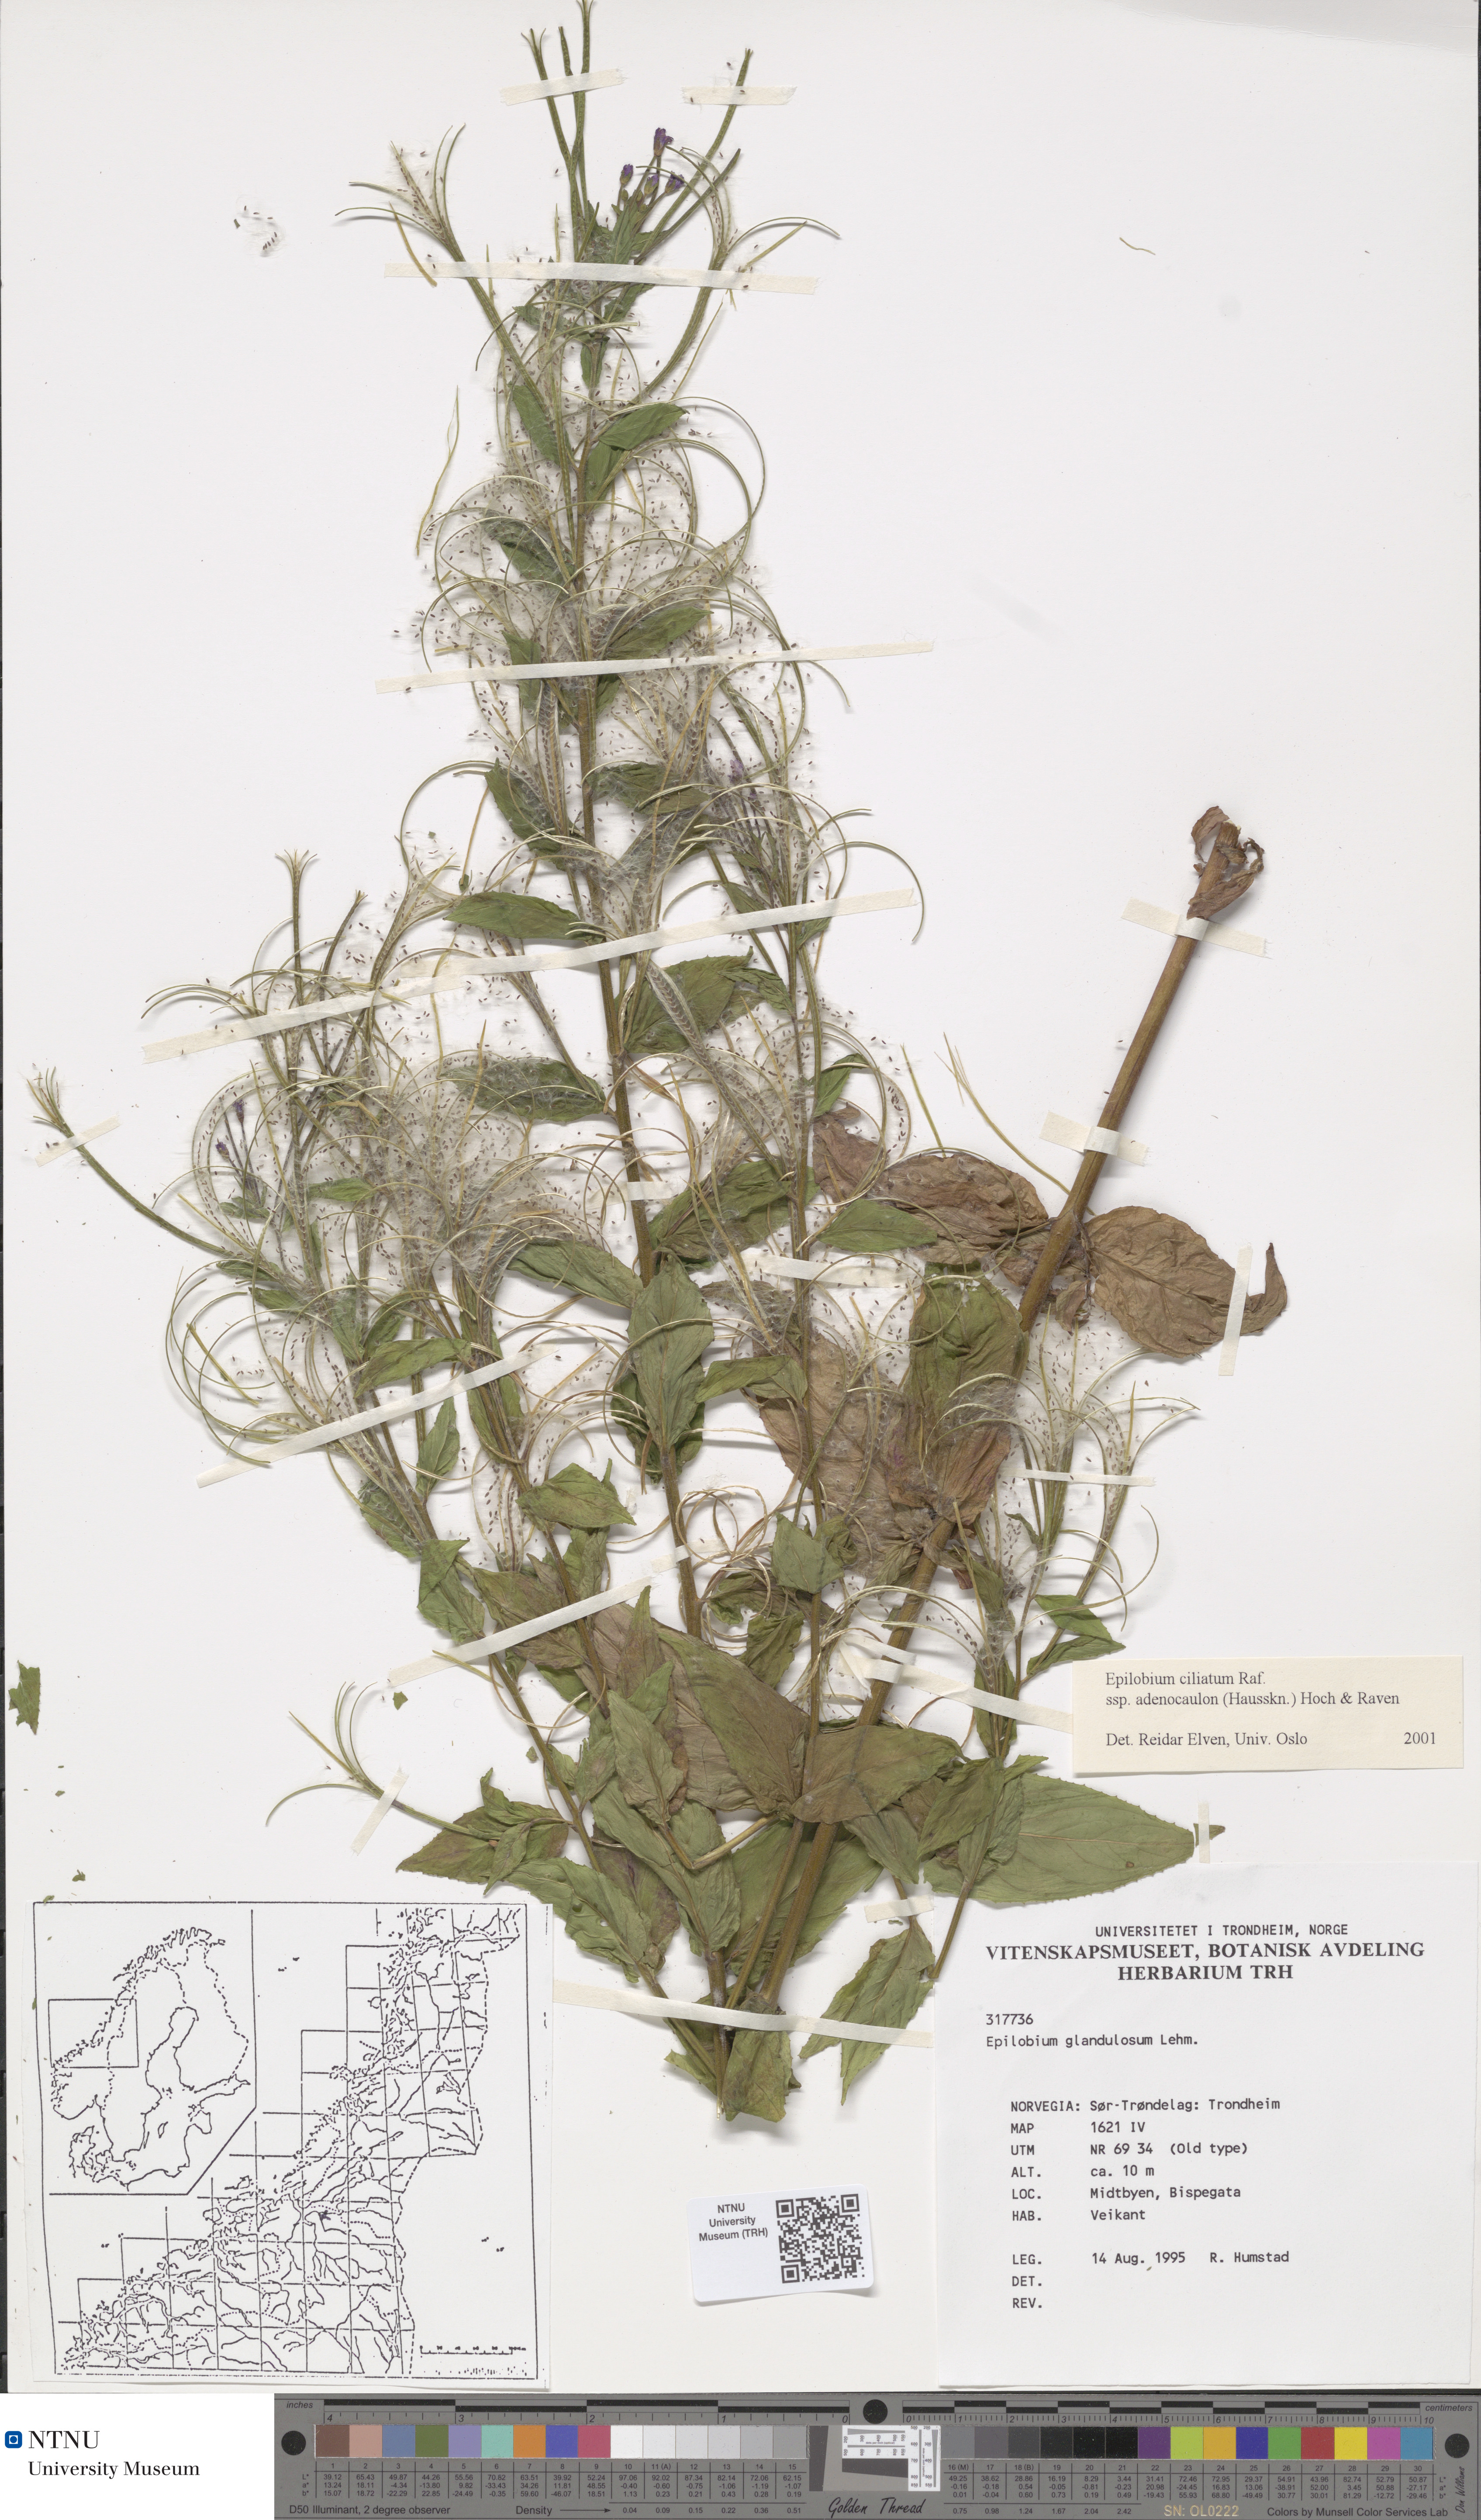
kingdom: Plantae
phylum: Tracheophyta
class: Magnoliopsida
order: Myrtales
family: Onagraceae
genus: Epilobium
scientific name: Epilobium ciliatum
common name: American willowherb
